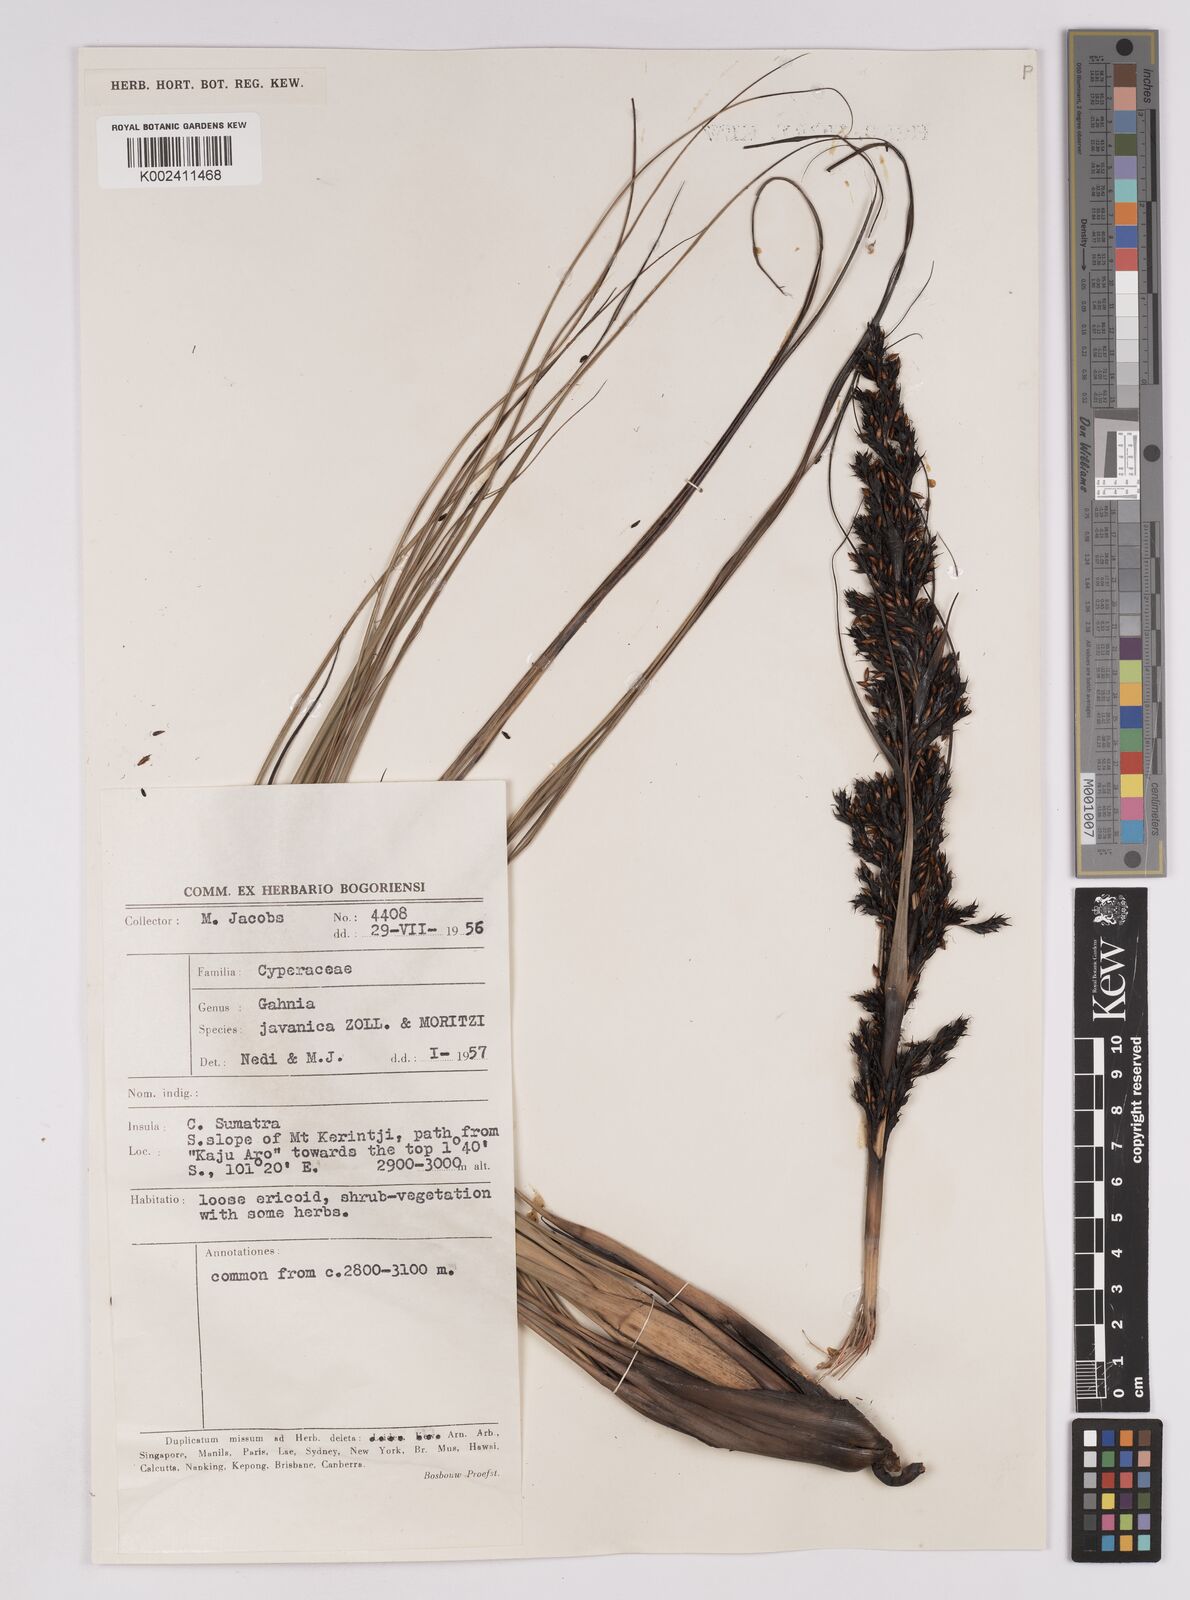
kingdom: Plantae
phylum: Tracheophyta
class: Liliopsida
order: Poales
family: Cyperaceae
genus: Gahnia
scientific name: Gahnia javanica
